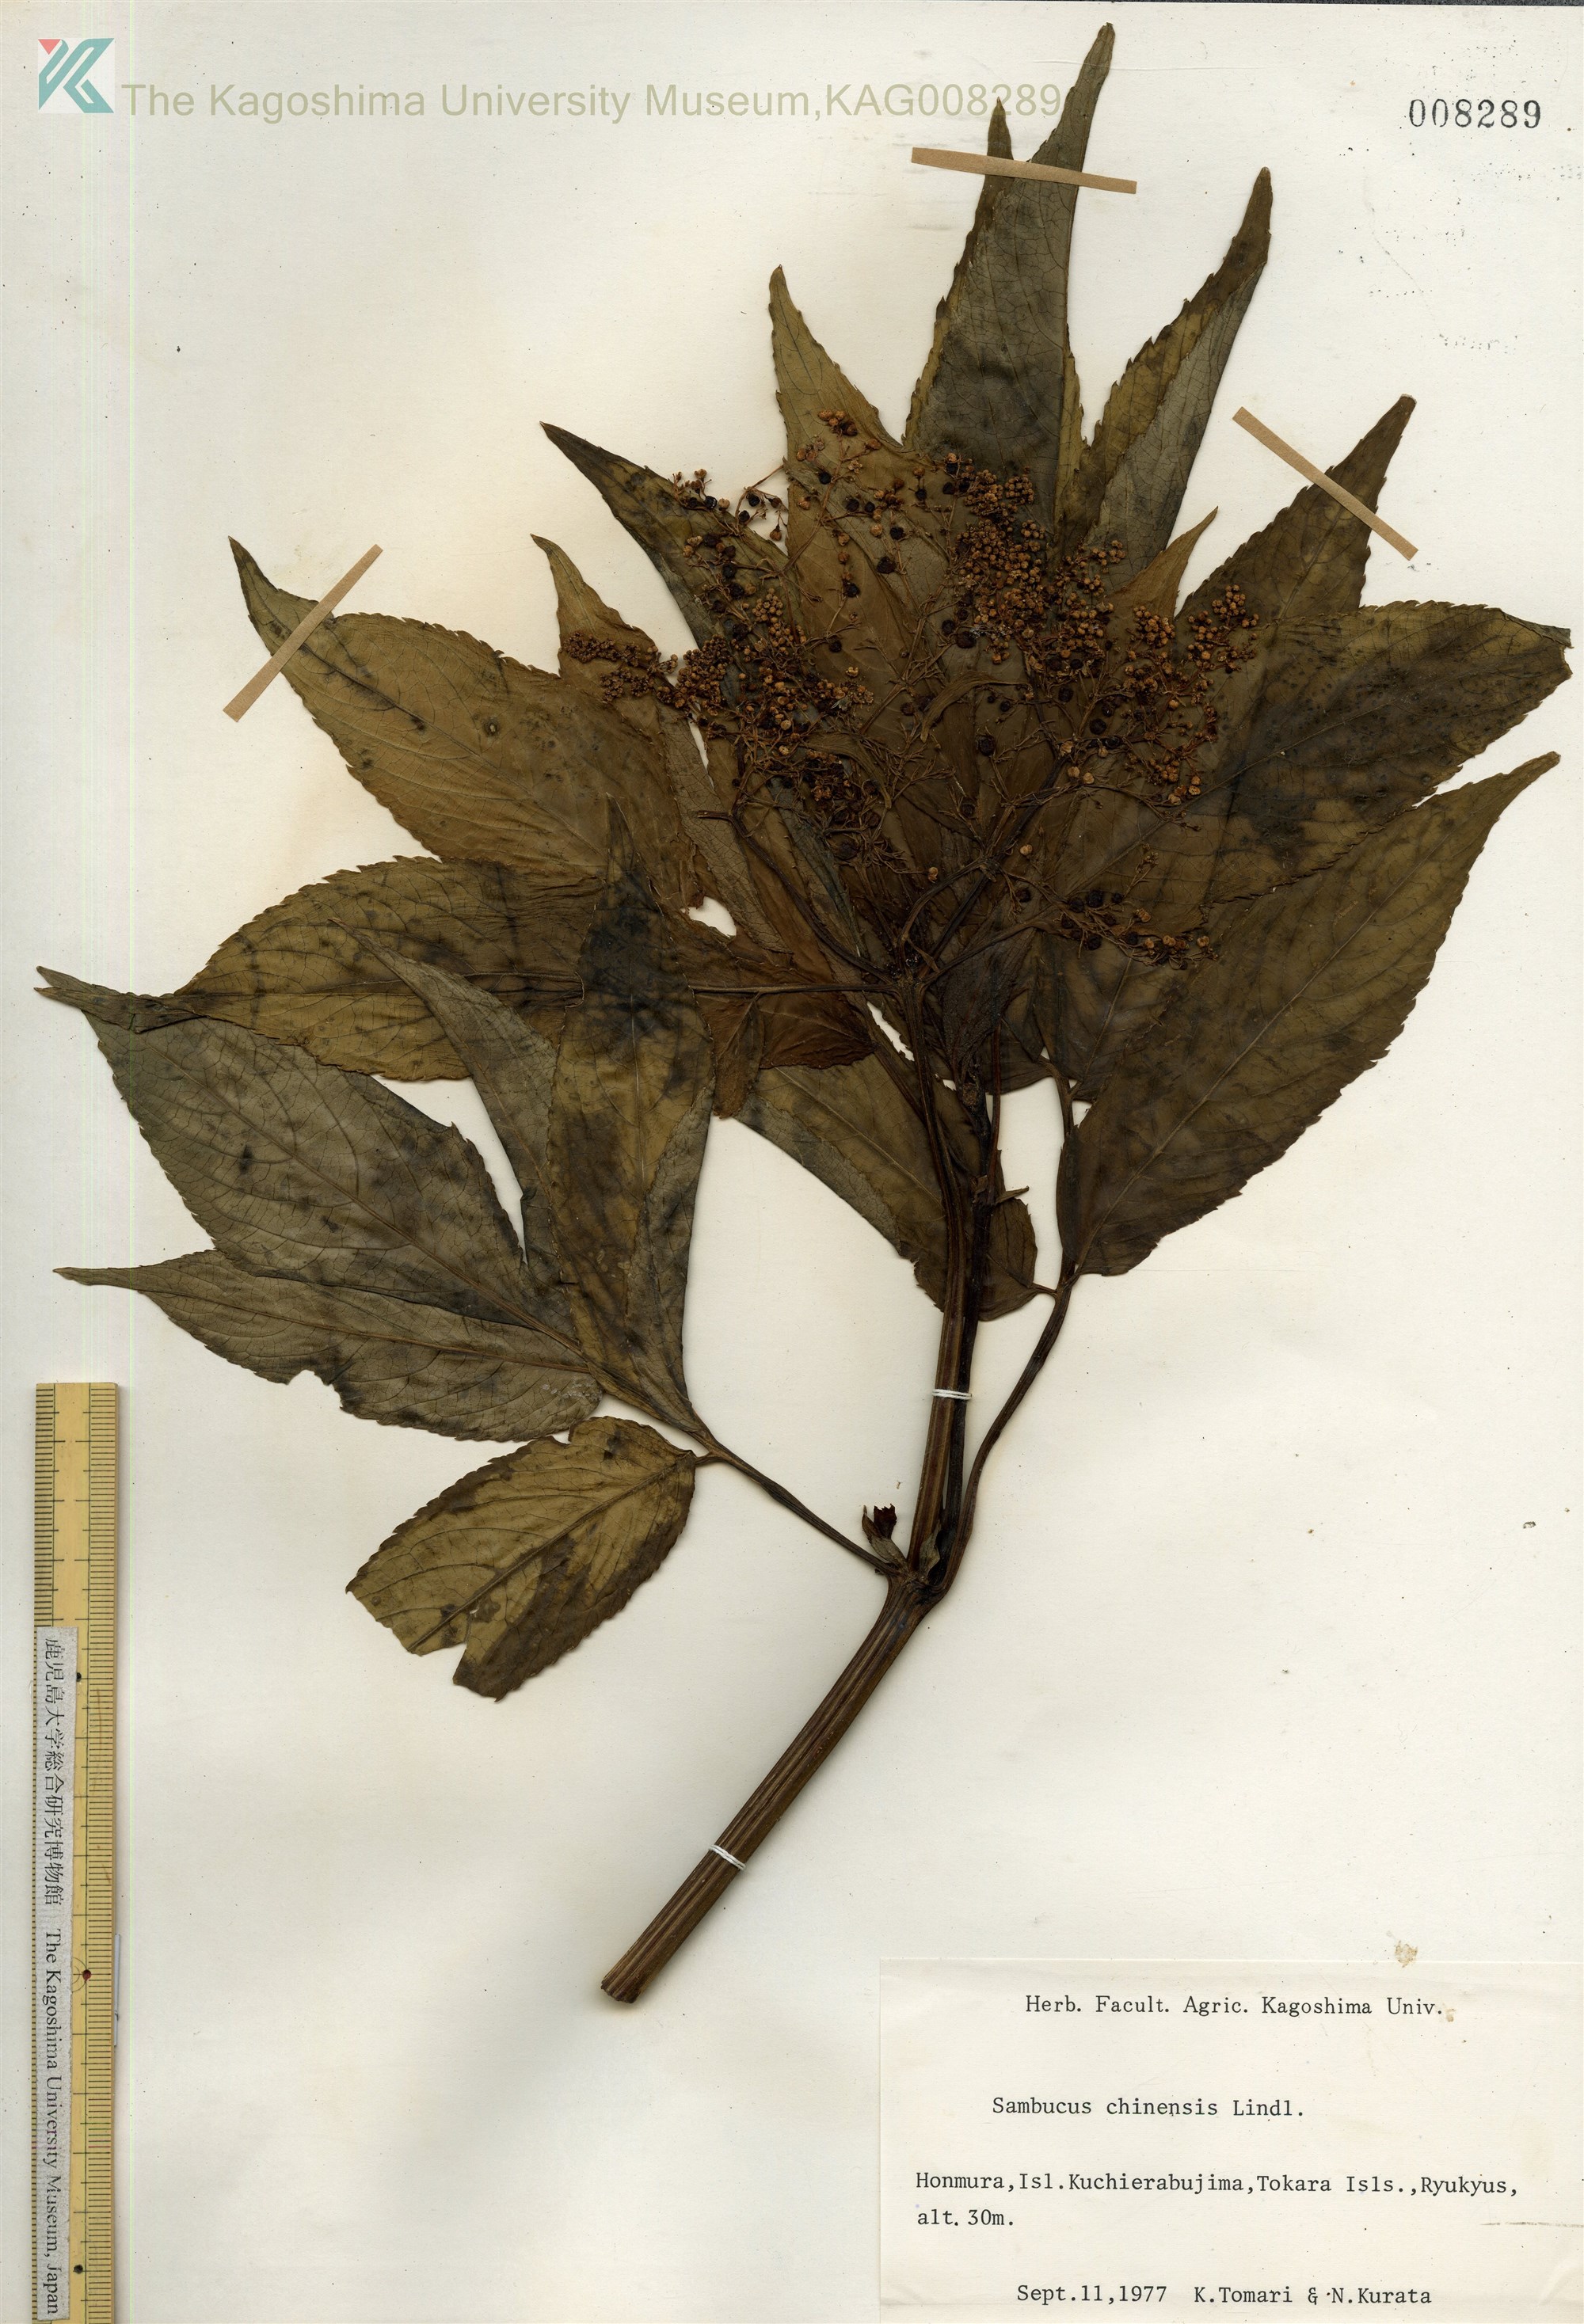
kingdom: Plantae
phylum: Tracheophyta
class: Magnoliopsida
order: Dipsacales
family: Viburnaceae
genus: Sambucus
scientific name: Sambucus javanica
